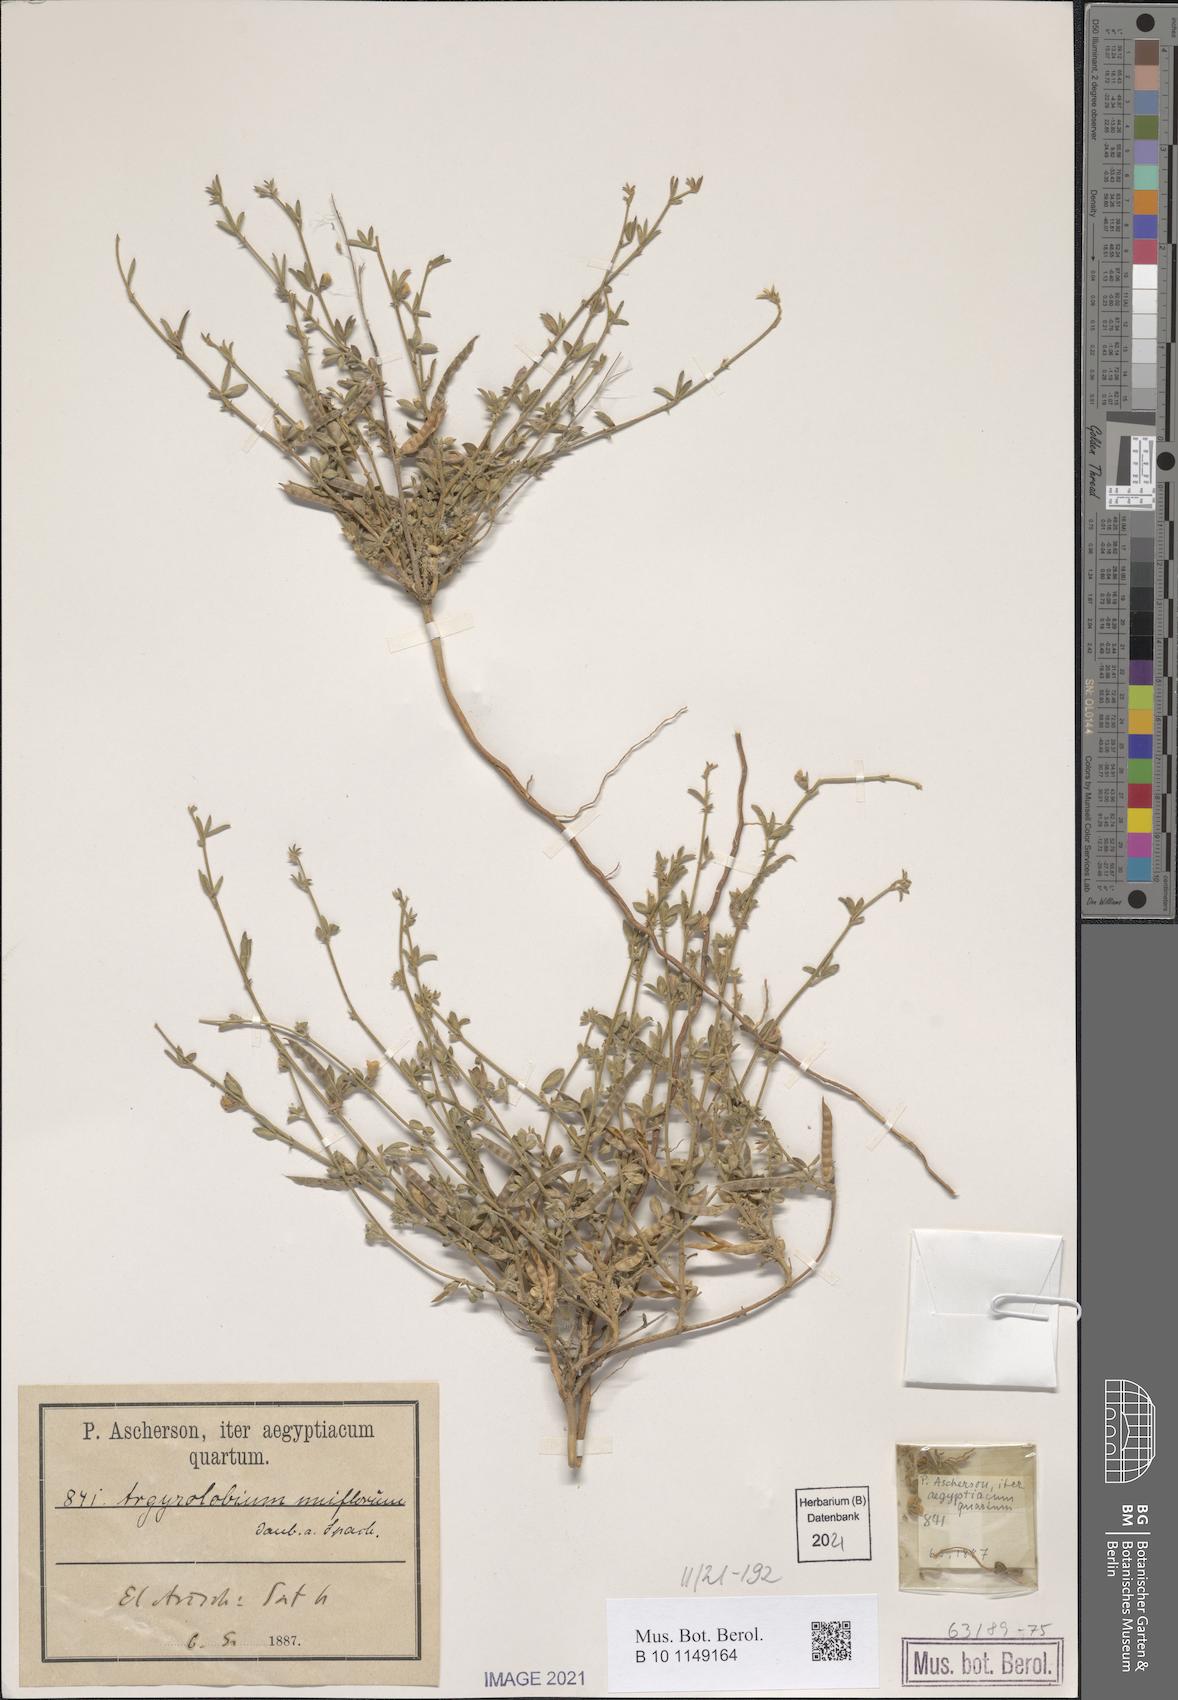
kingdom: Plantae
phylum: Tracheophyta
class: Magnoliopsida
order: Fabales
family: Fabaceae
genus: Argyrolobium
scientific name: Argyrolobium uniflorum
